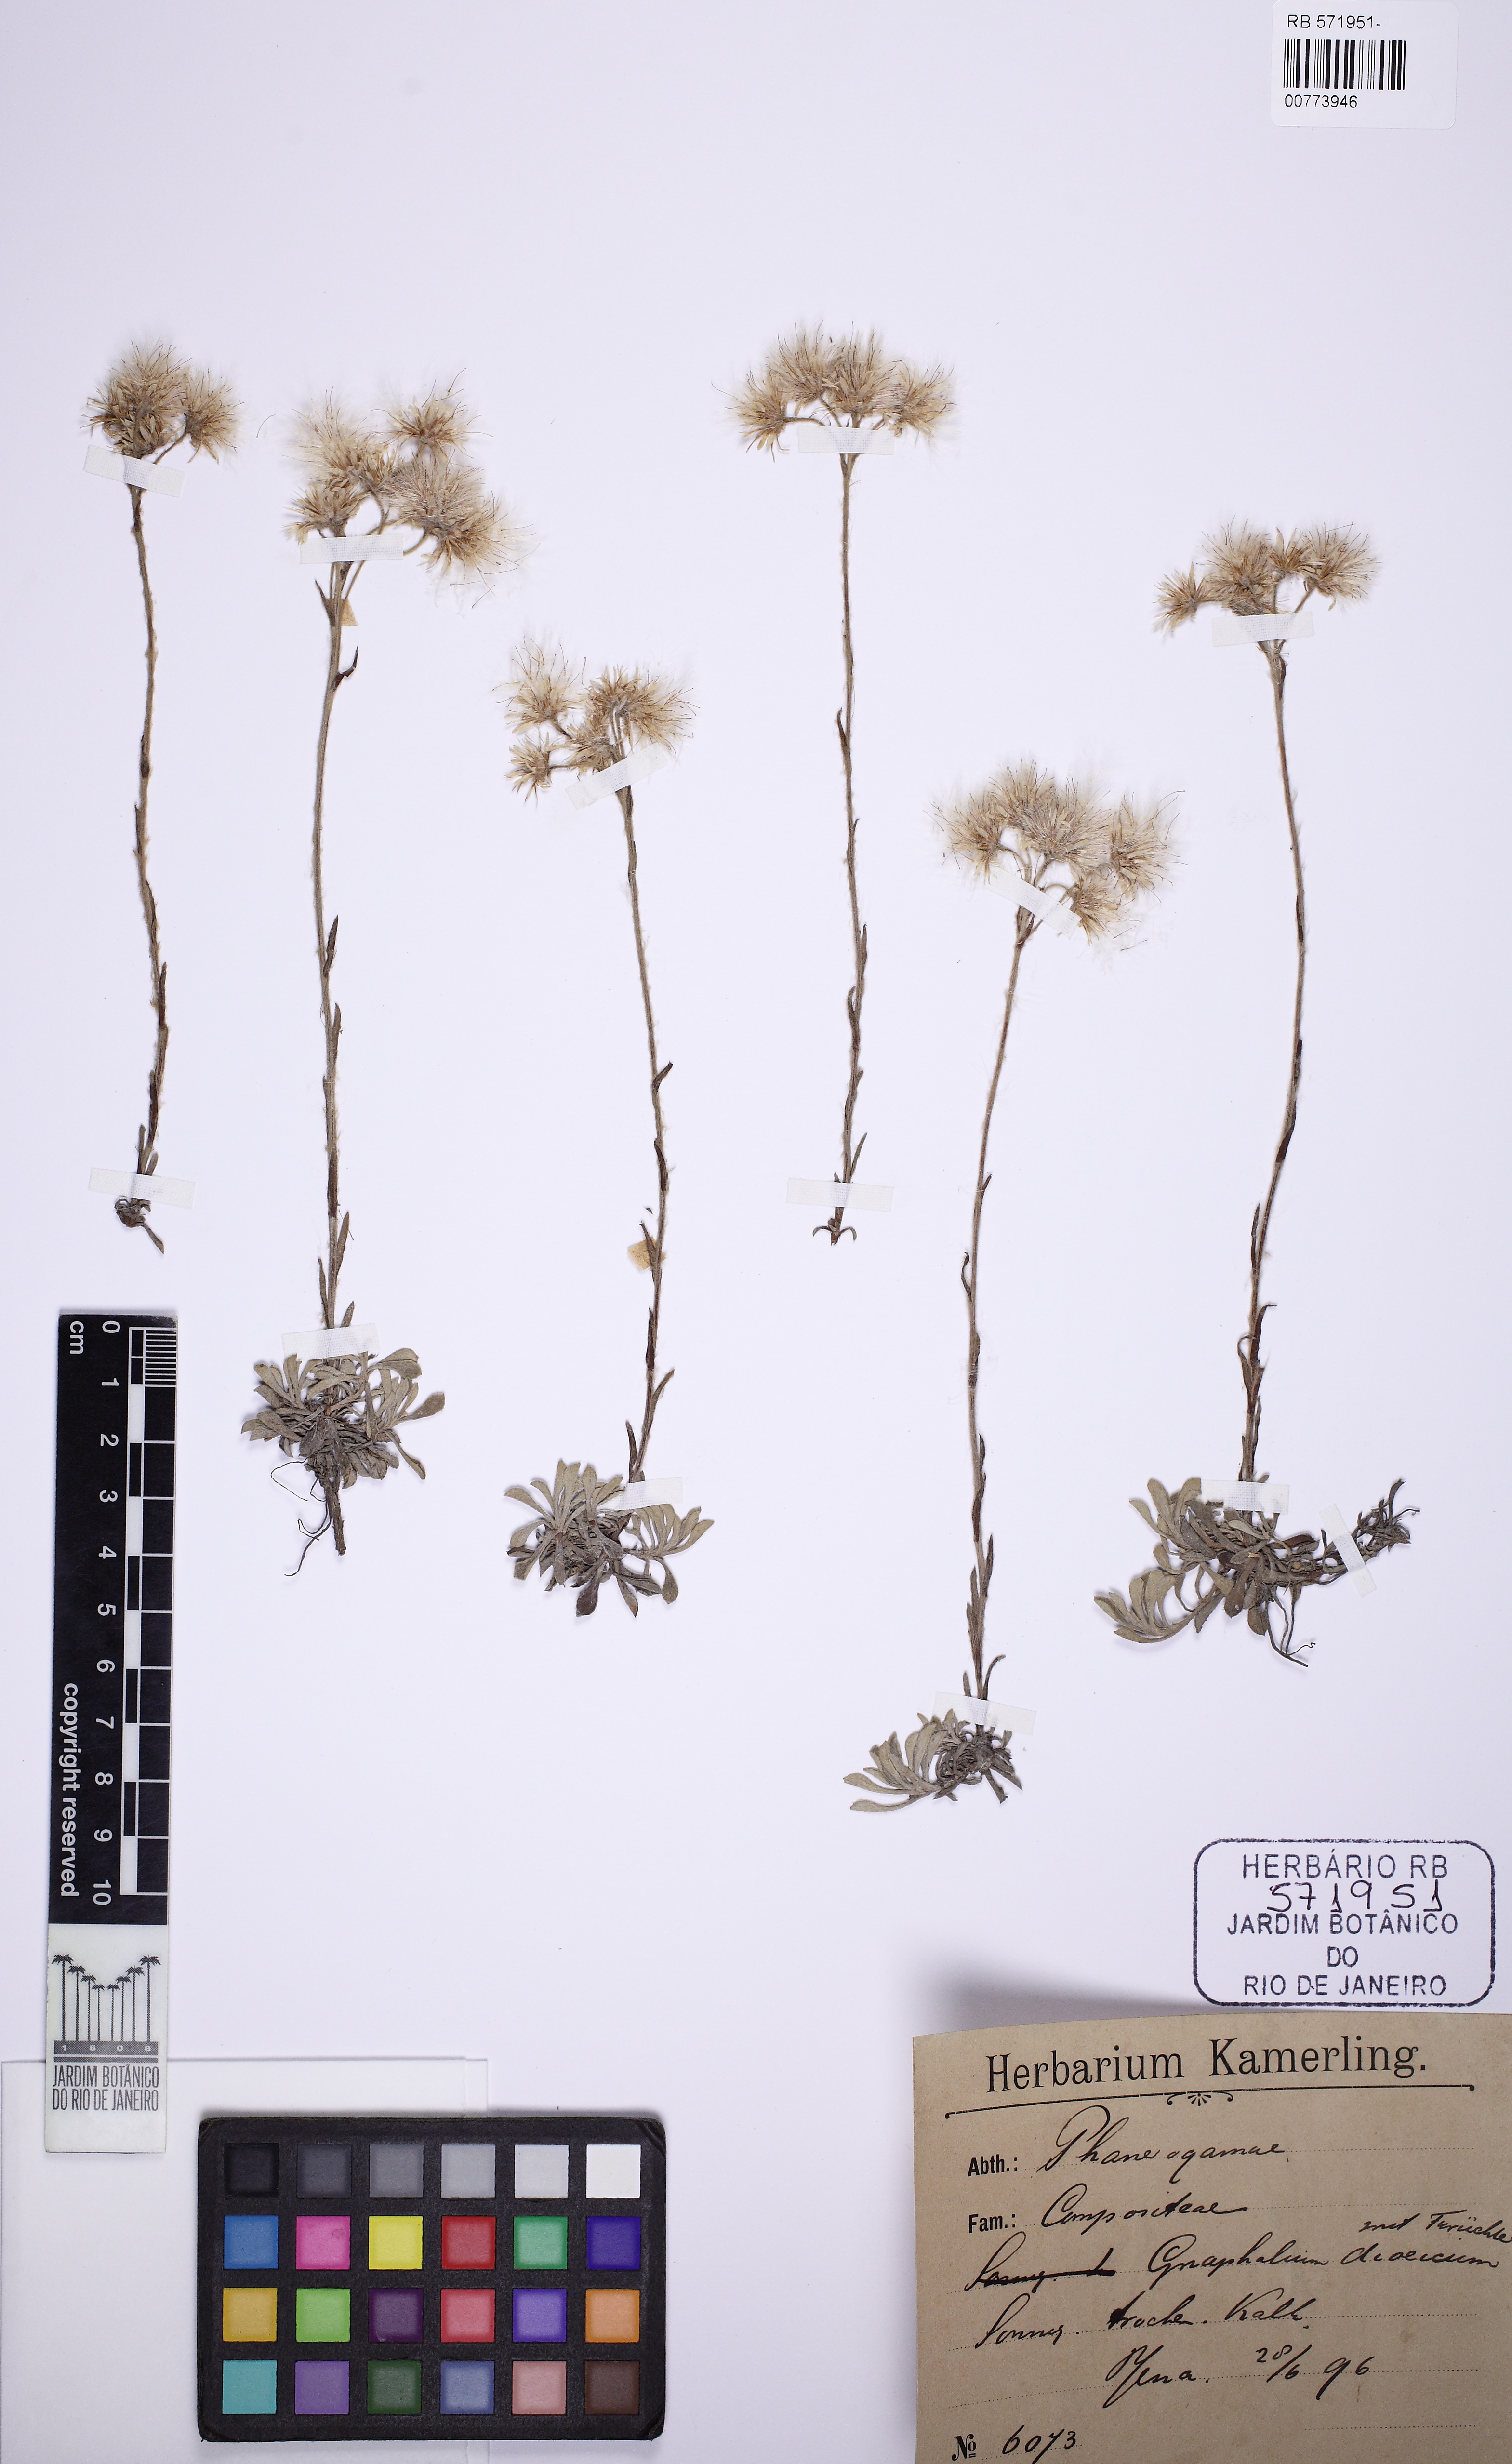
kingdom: Plantae
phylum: Tracheophyta
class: Magnoliopsida
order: Asterales
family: Asteraceae
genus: Antennaria
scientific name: Antennaria dioica
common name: Mountain everlasting
